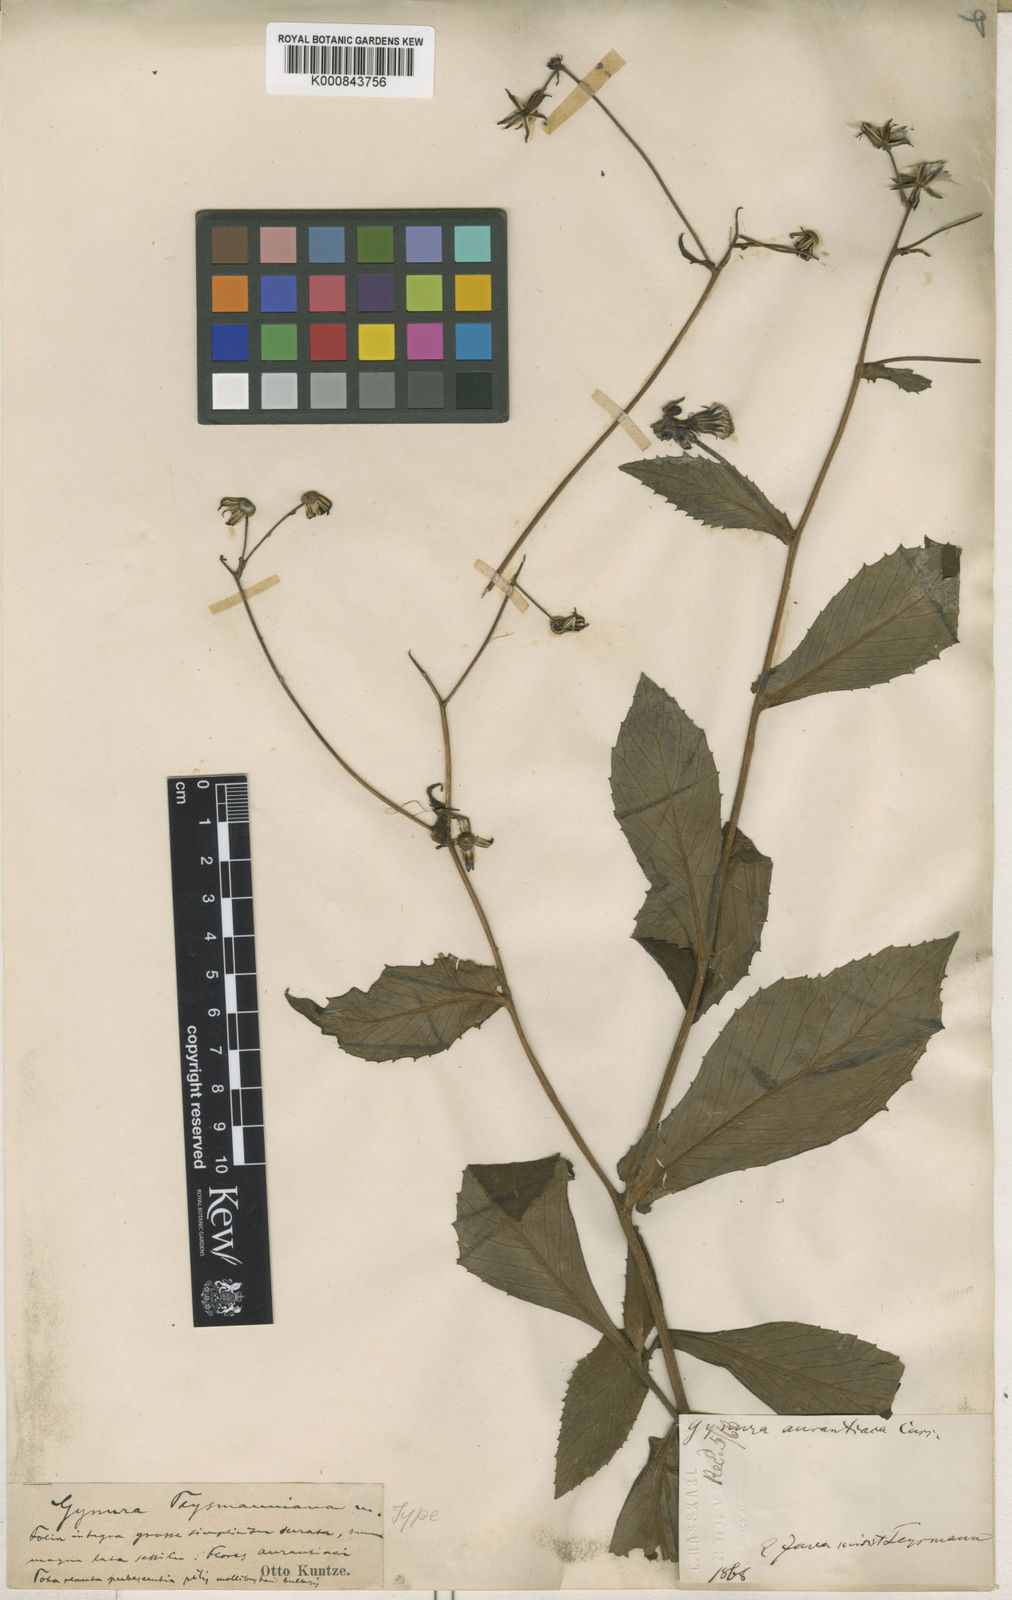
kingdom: Plantae
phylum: Tracheophyta
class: Magnoliopsida
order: Asterales
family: Asteraceae
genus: Gynura
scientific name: Gynura aurantiaca
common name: Velvetplant
